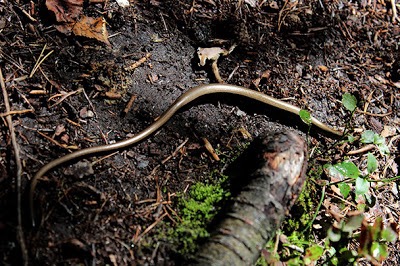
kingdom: Animalia
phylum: Chordata
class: Squamata
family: Anguidae
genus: Anguis
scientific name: Anguis colchica
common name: Slow worm
